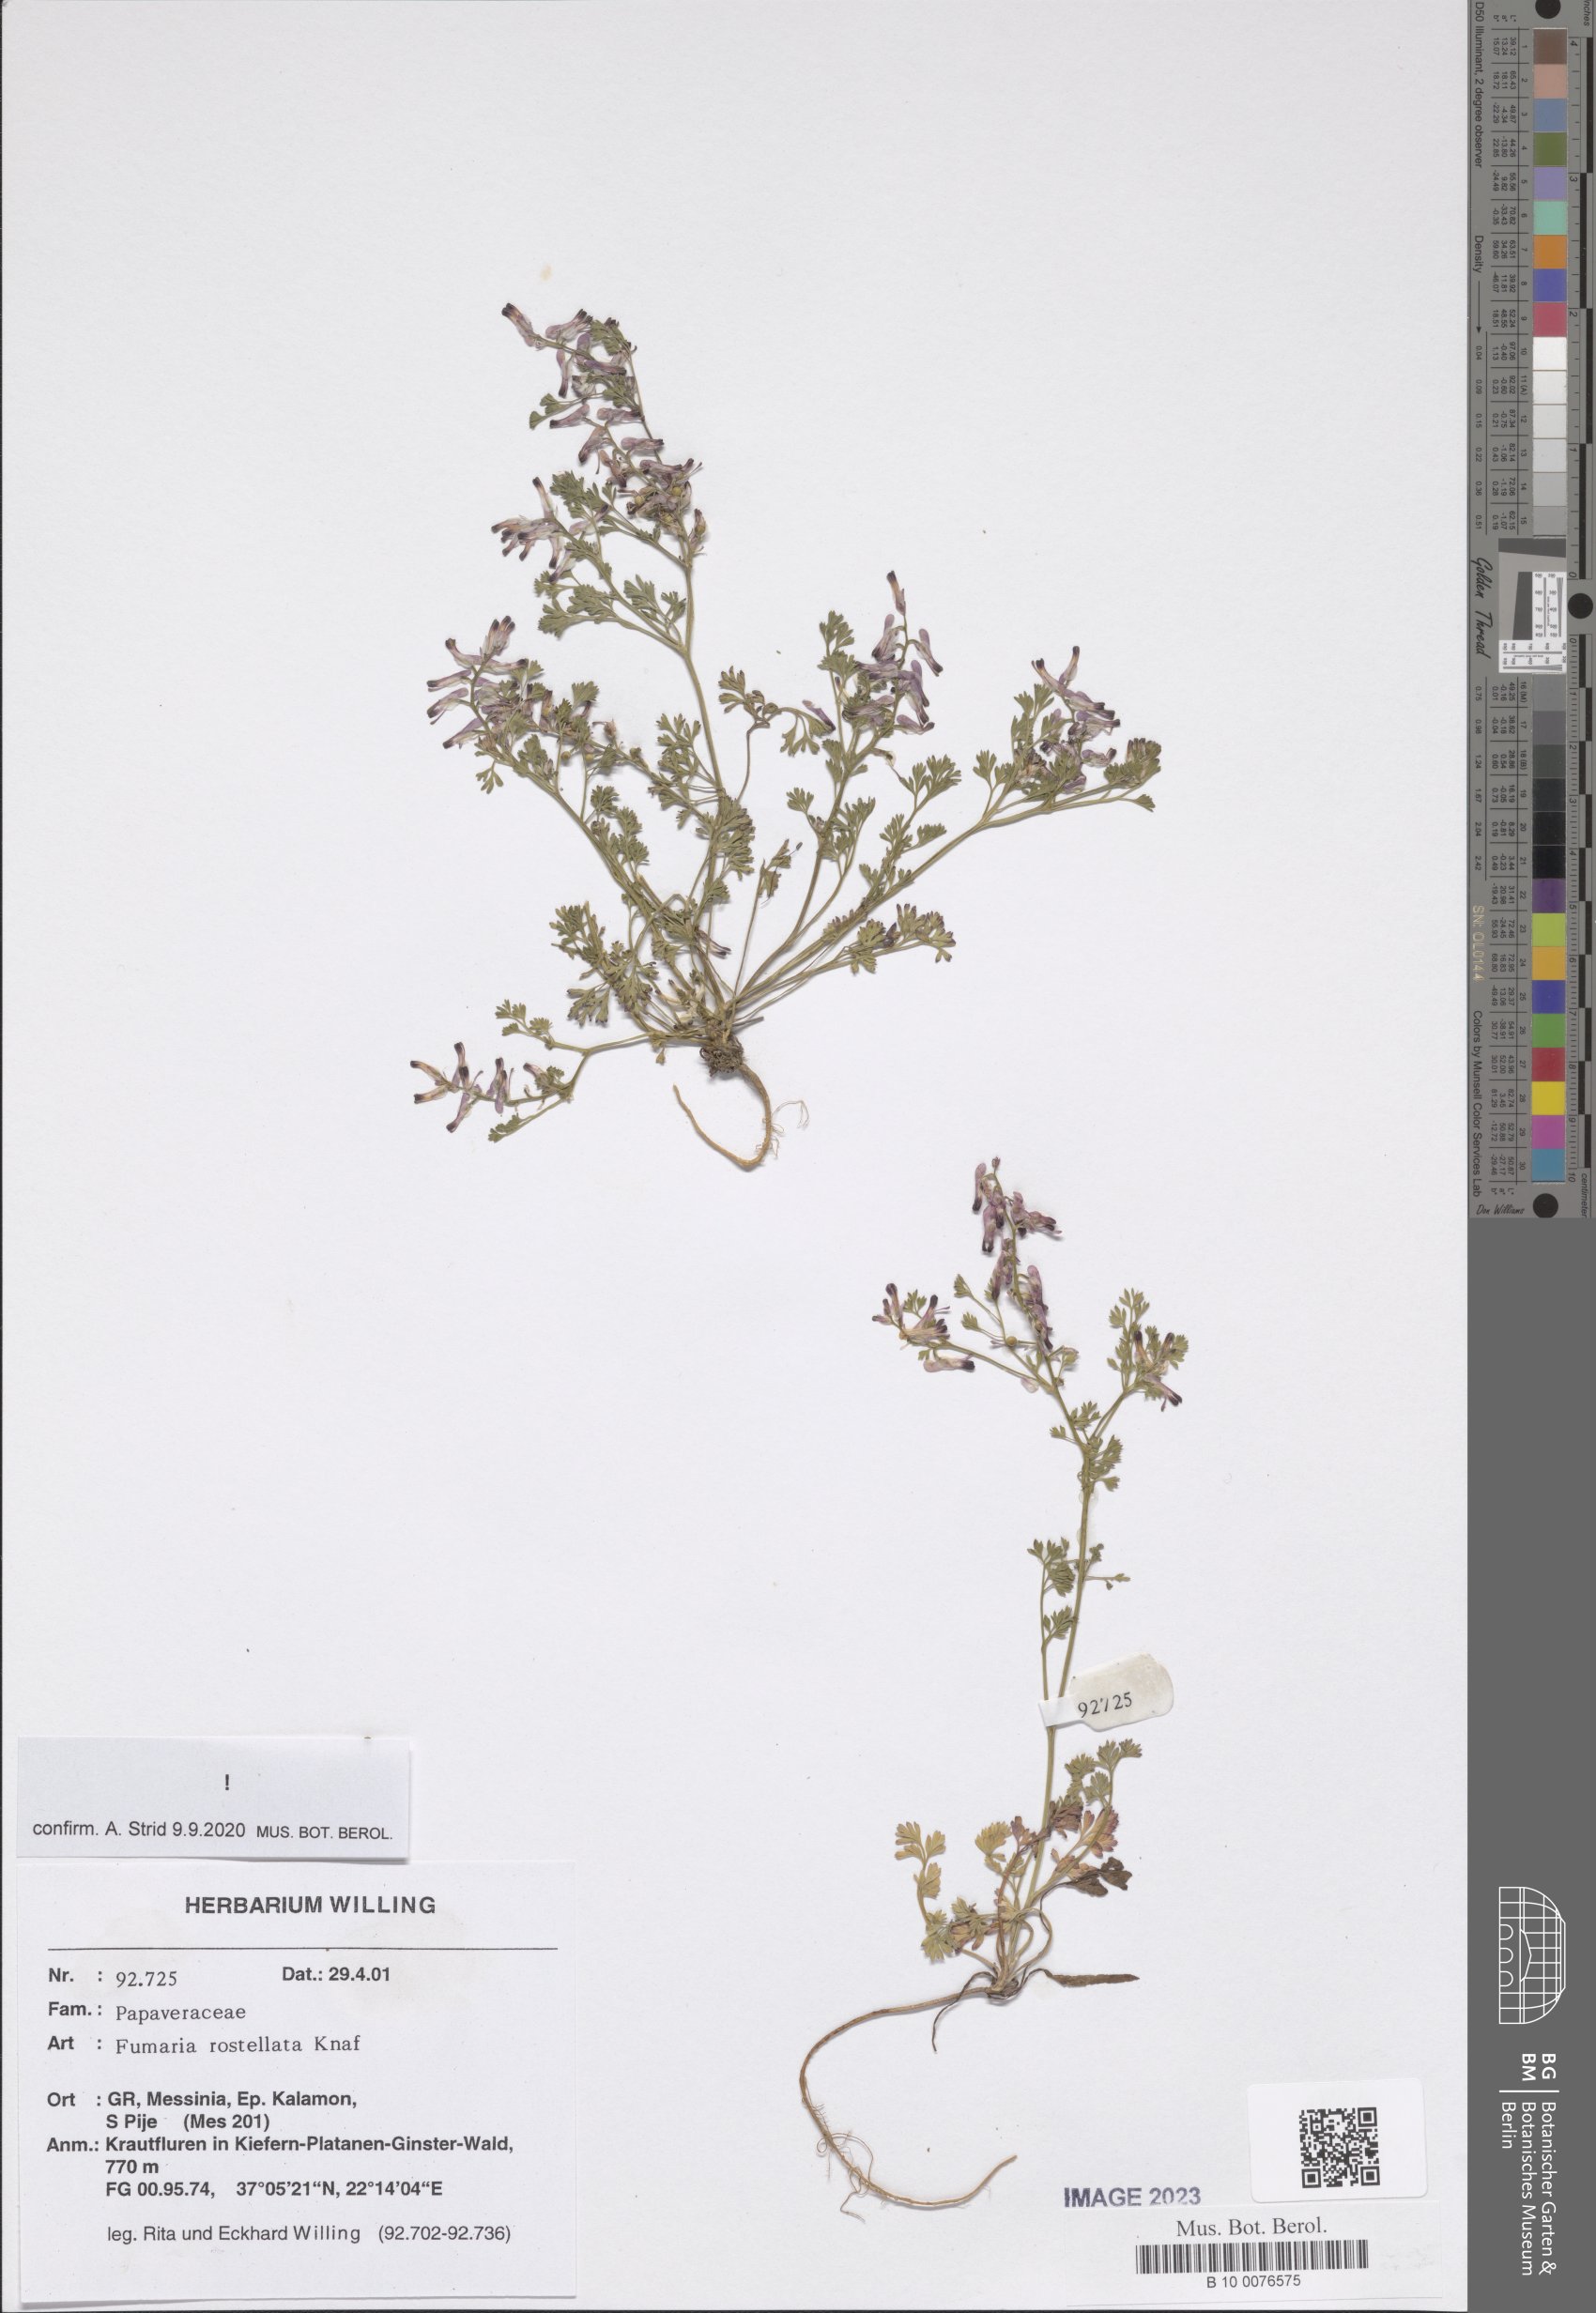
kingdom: Plantae
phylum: Tracheophyta
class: Magnoliopsida
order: Ranunculales
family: Papaveraceae
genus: Fumaria
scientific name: Fumaria rostellata
